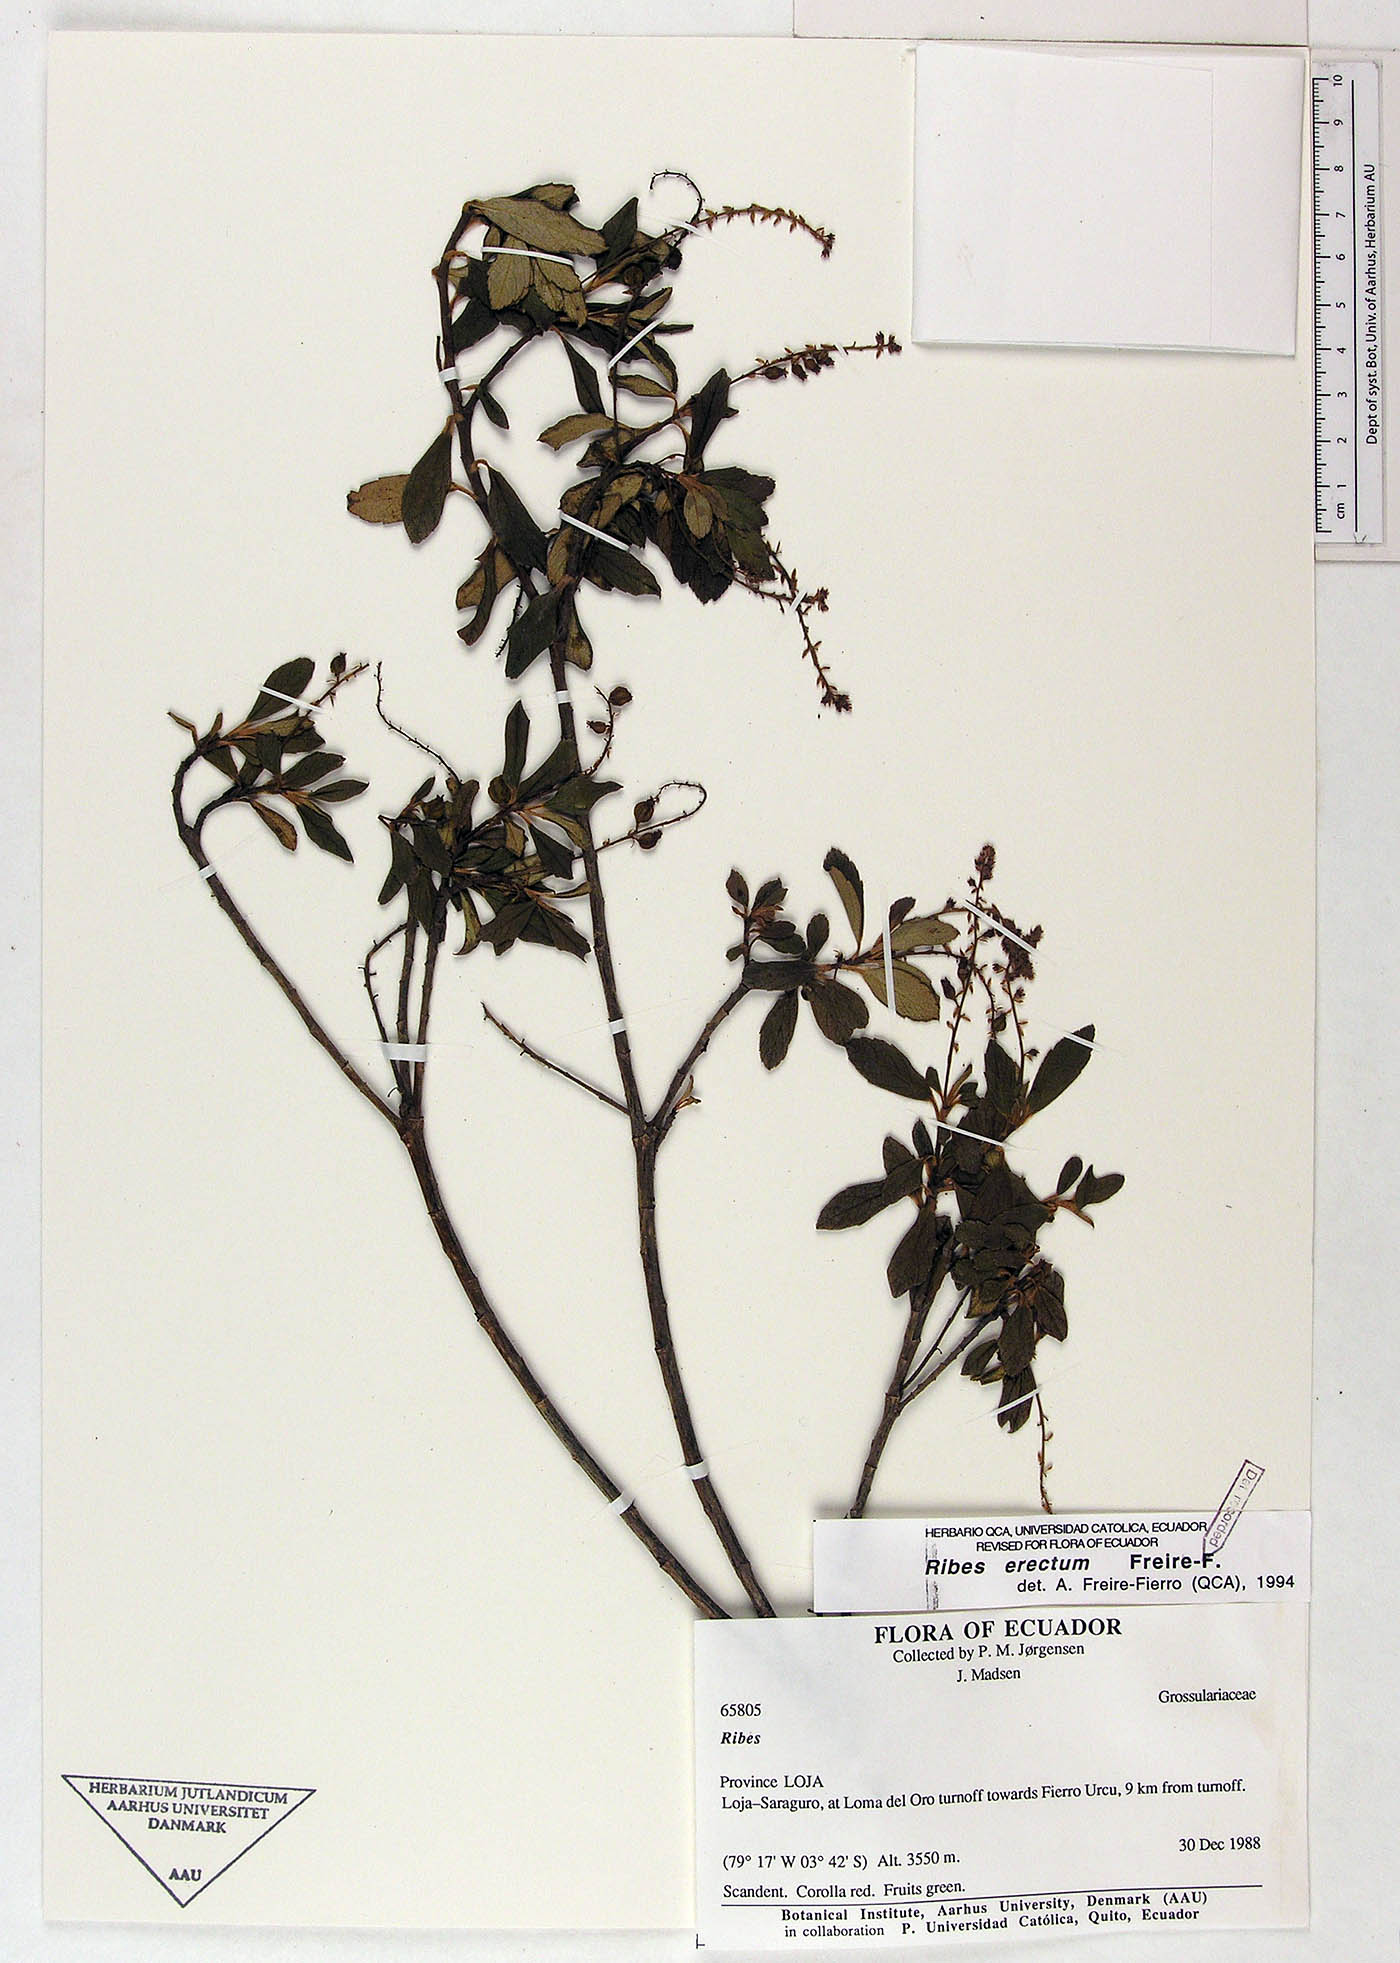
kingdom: Plantae
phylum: Tracheophyta
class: Magnoliopsida
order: Saxifragales
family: Grossulariaceae
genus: Ribes
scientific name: Ribes erectum
